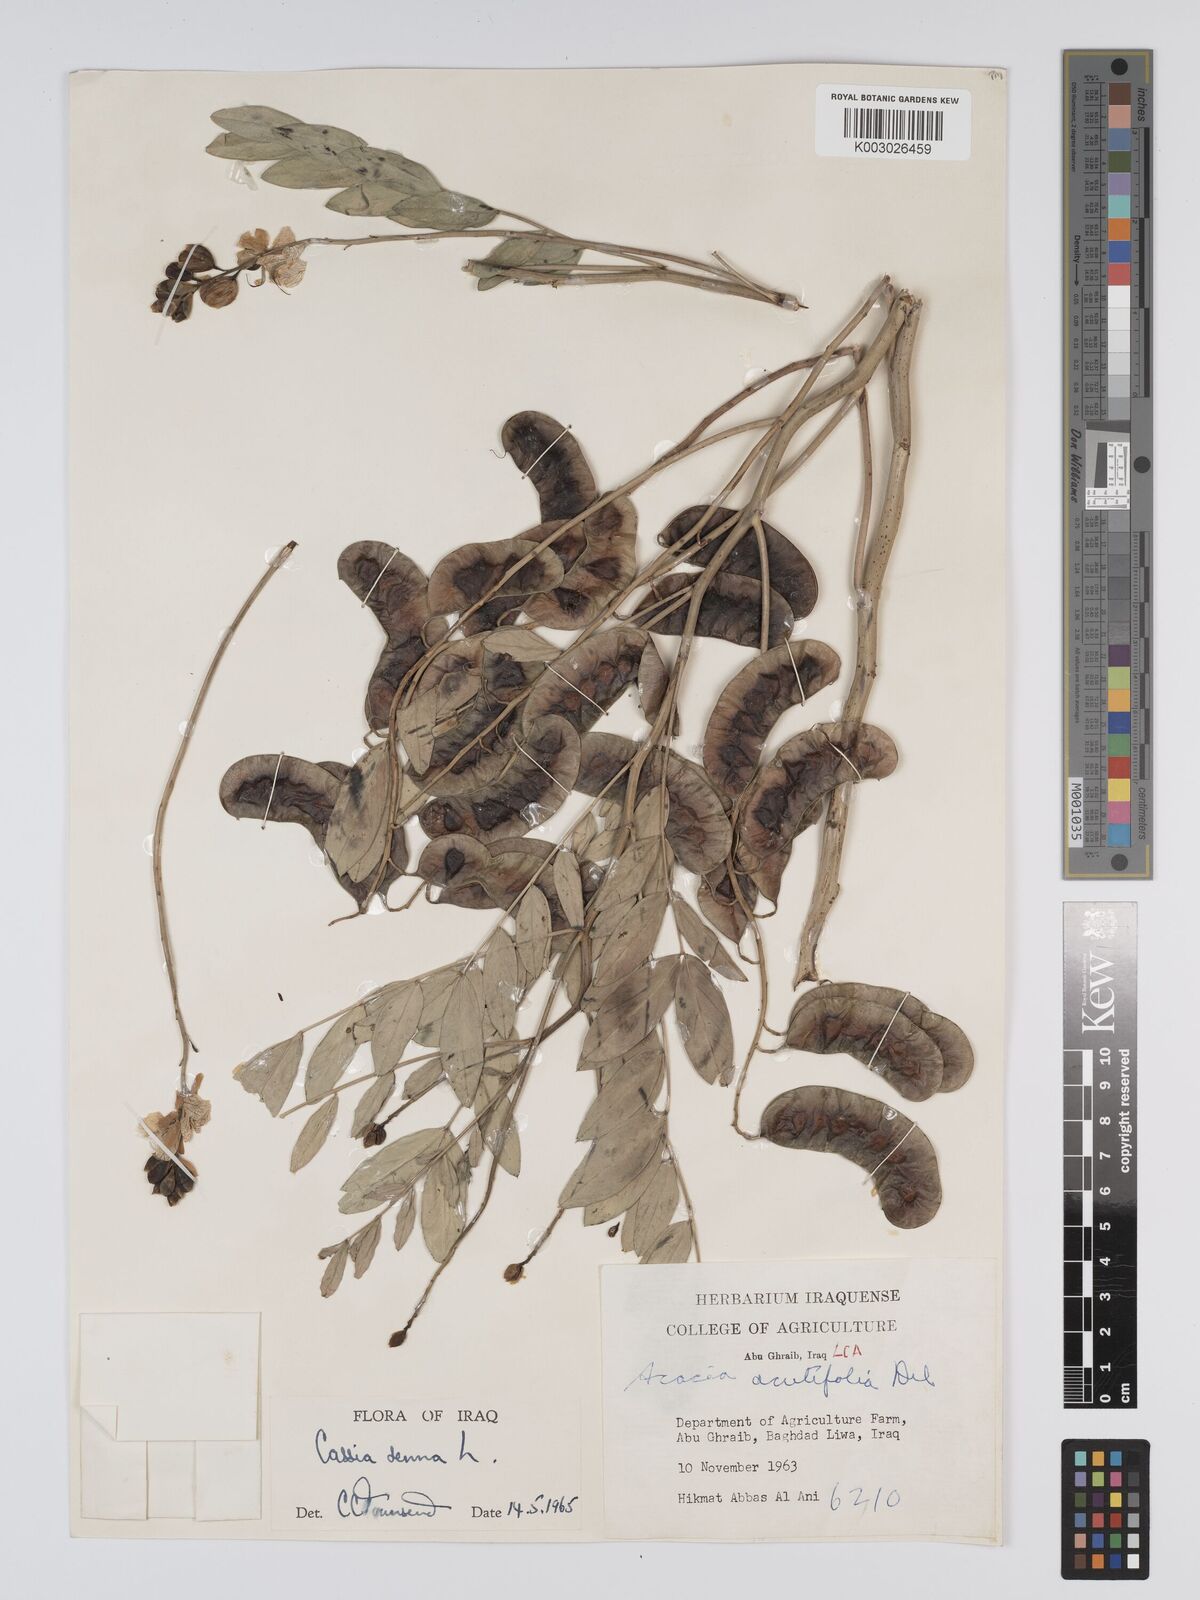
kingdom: Plantae
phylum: Tracheophyta
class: Magnoliopsida
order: Fabales
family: Fabaceae
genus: Senna
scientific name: Senna alexandrina
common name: True senna
